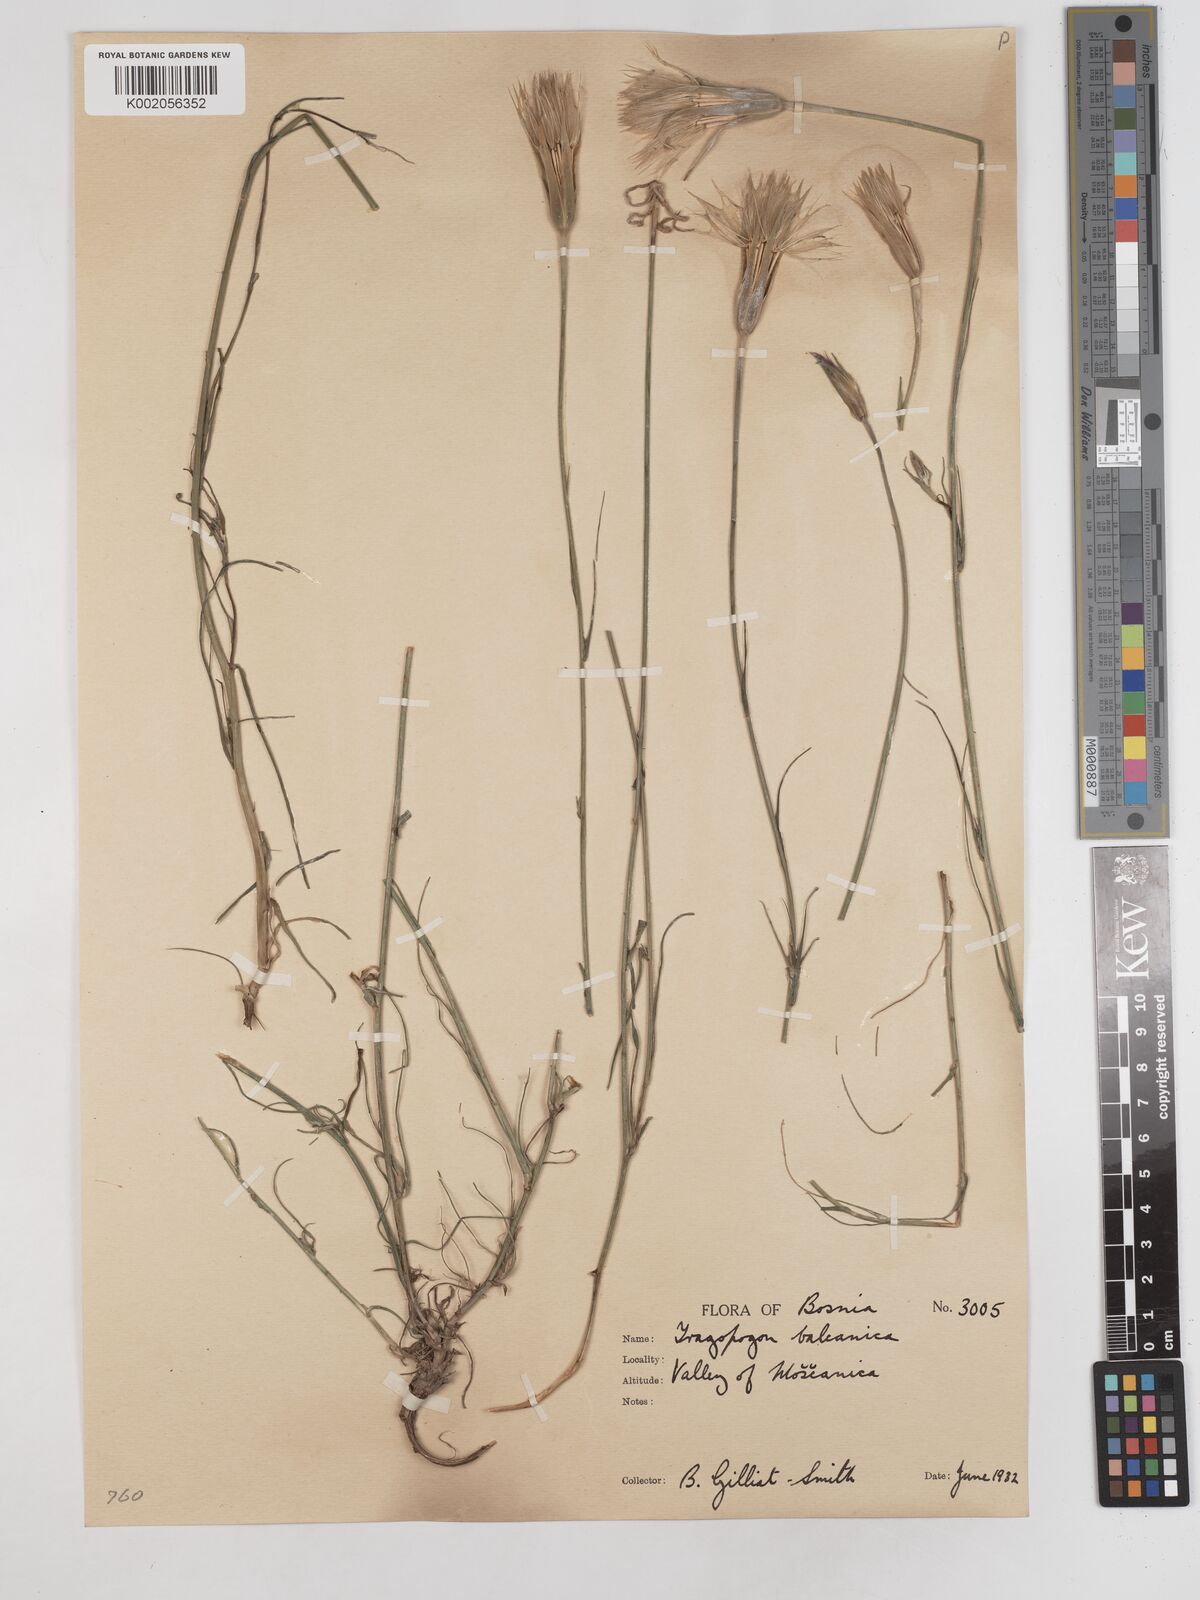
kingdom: Plantae
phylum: Tracheophyta
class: Magnoliopsida
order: Asterales
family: Asteraceae
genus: Tragopogon
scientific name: Tragopogon balcanicus
